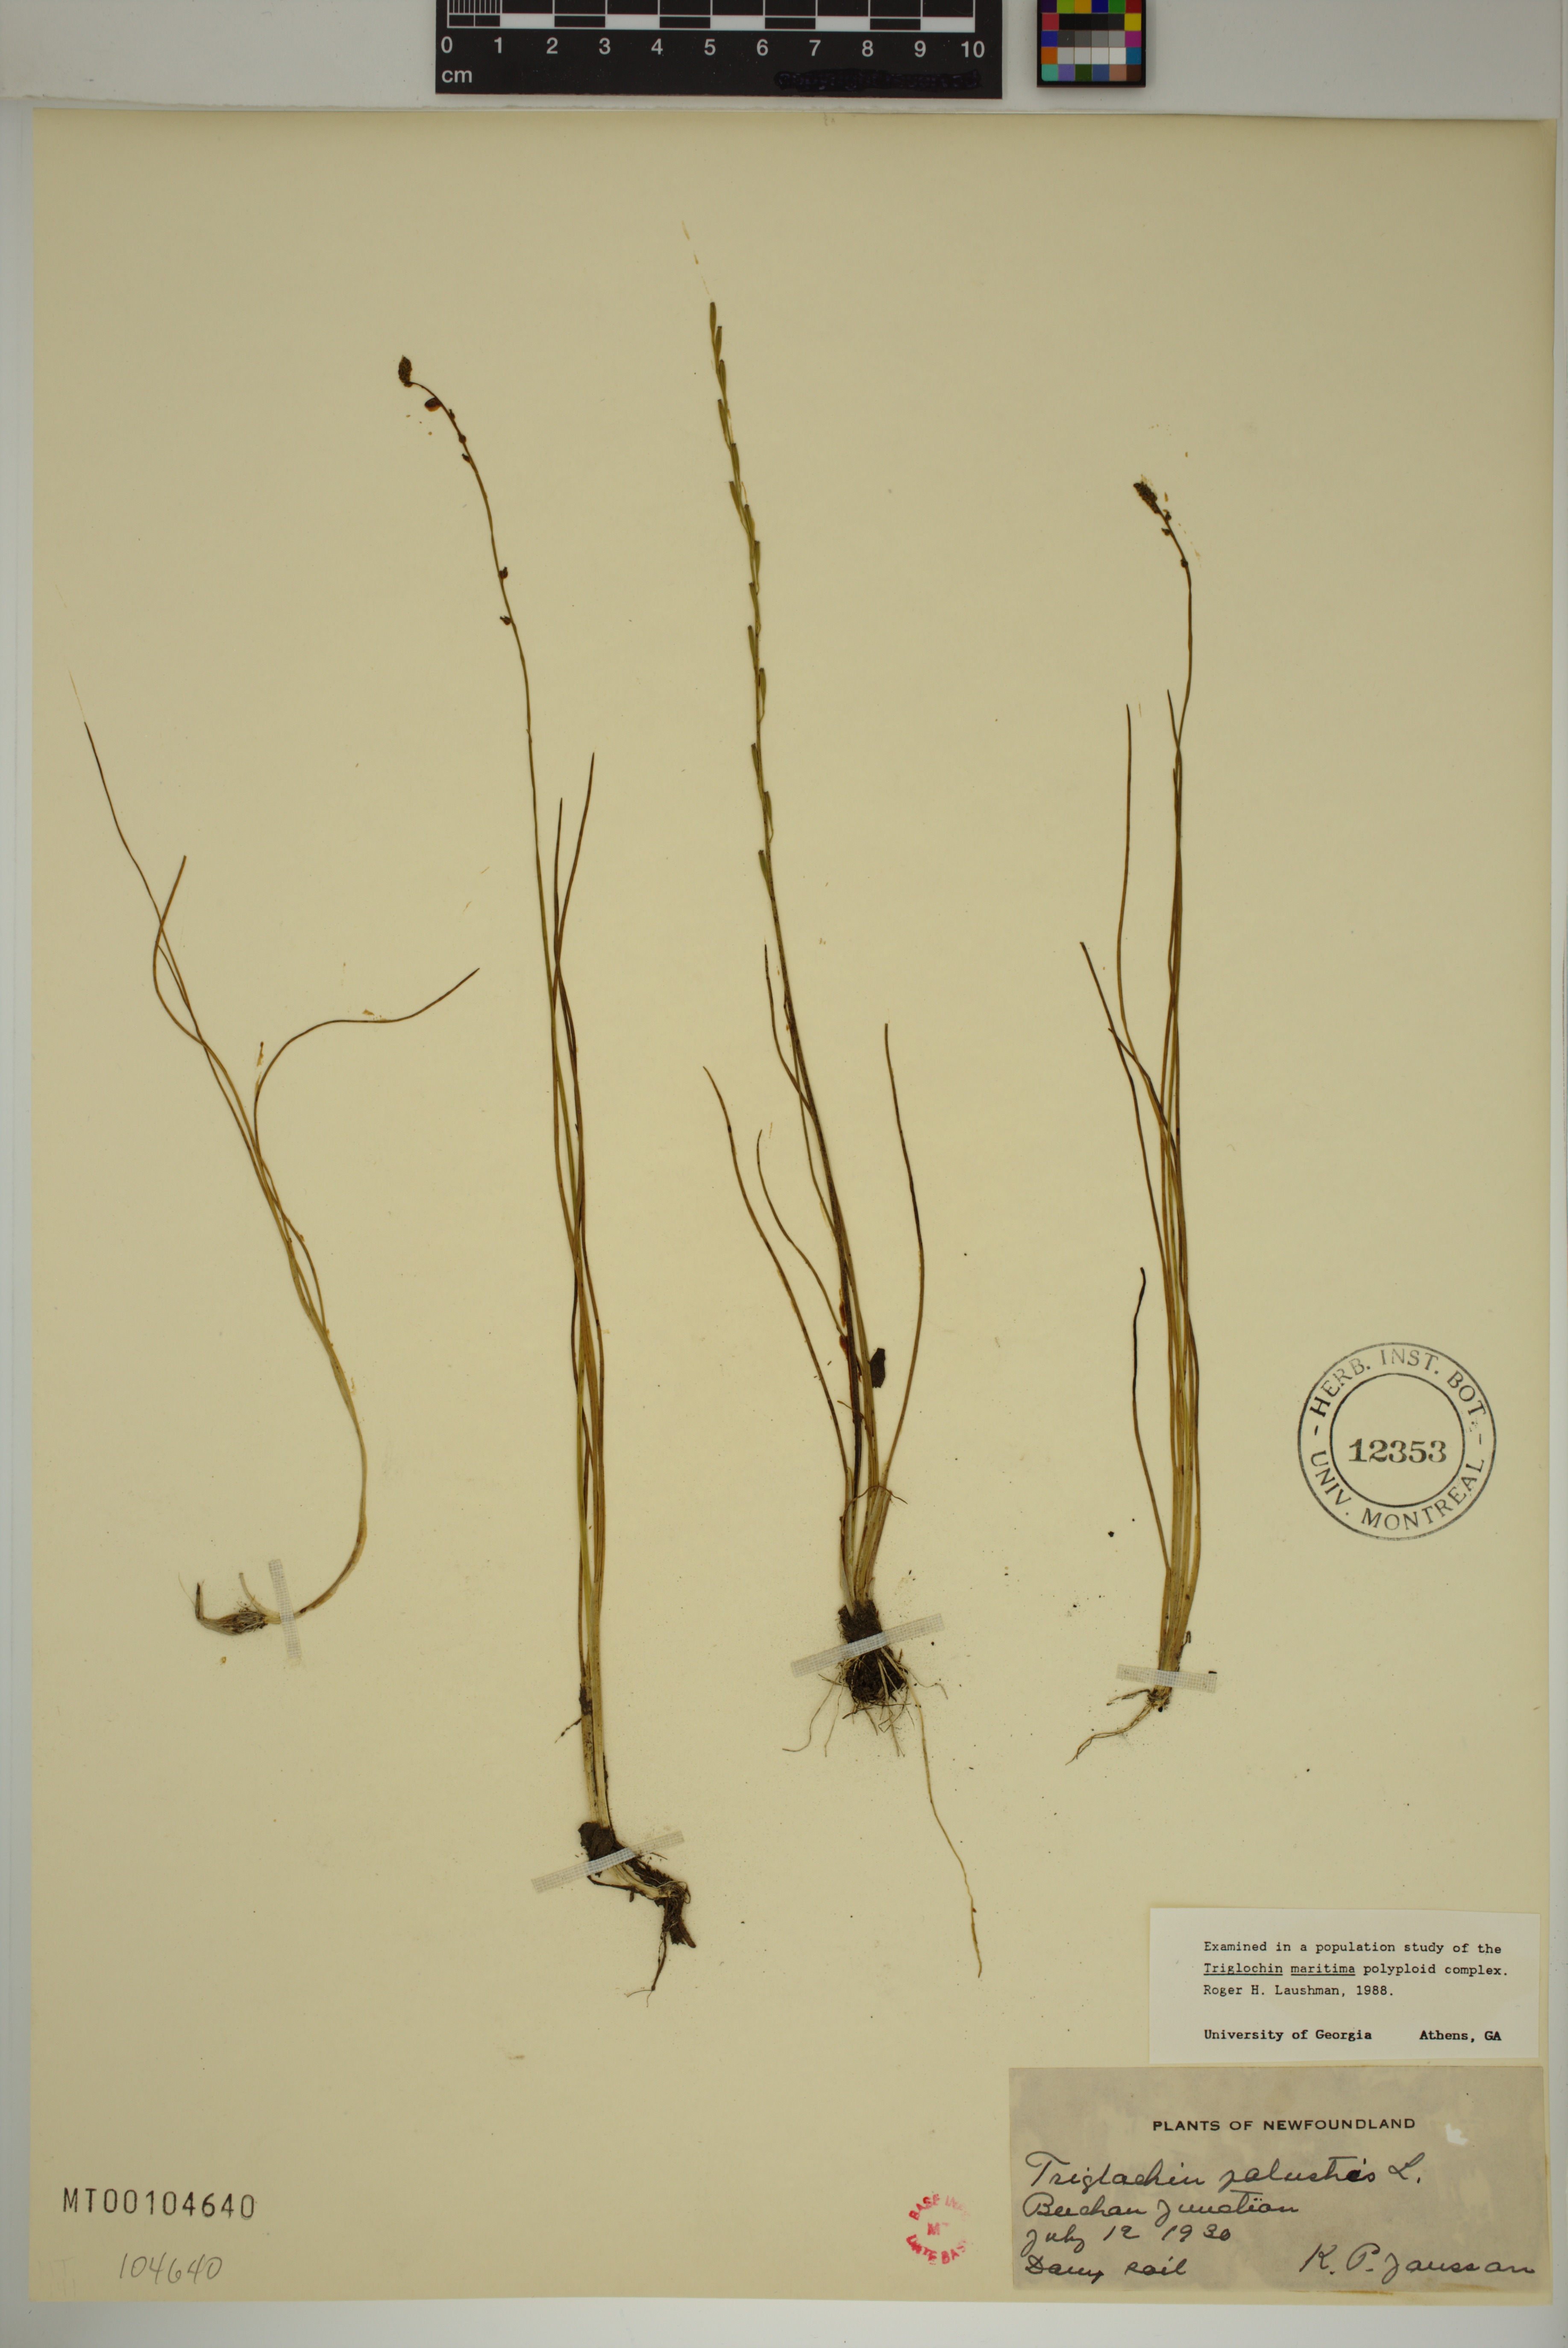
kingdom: Plantae
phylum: Tracheophyta
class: Liliopsida
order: Alismatales
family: Juncaginaceae
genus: Triglochin
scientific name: Triglochin palustris
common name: Marsh arrowgrass
